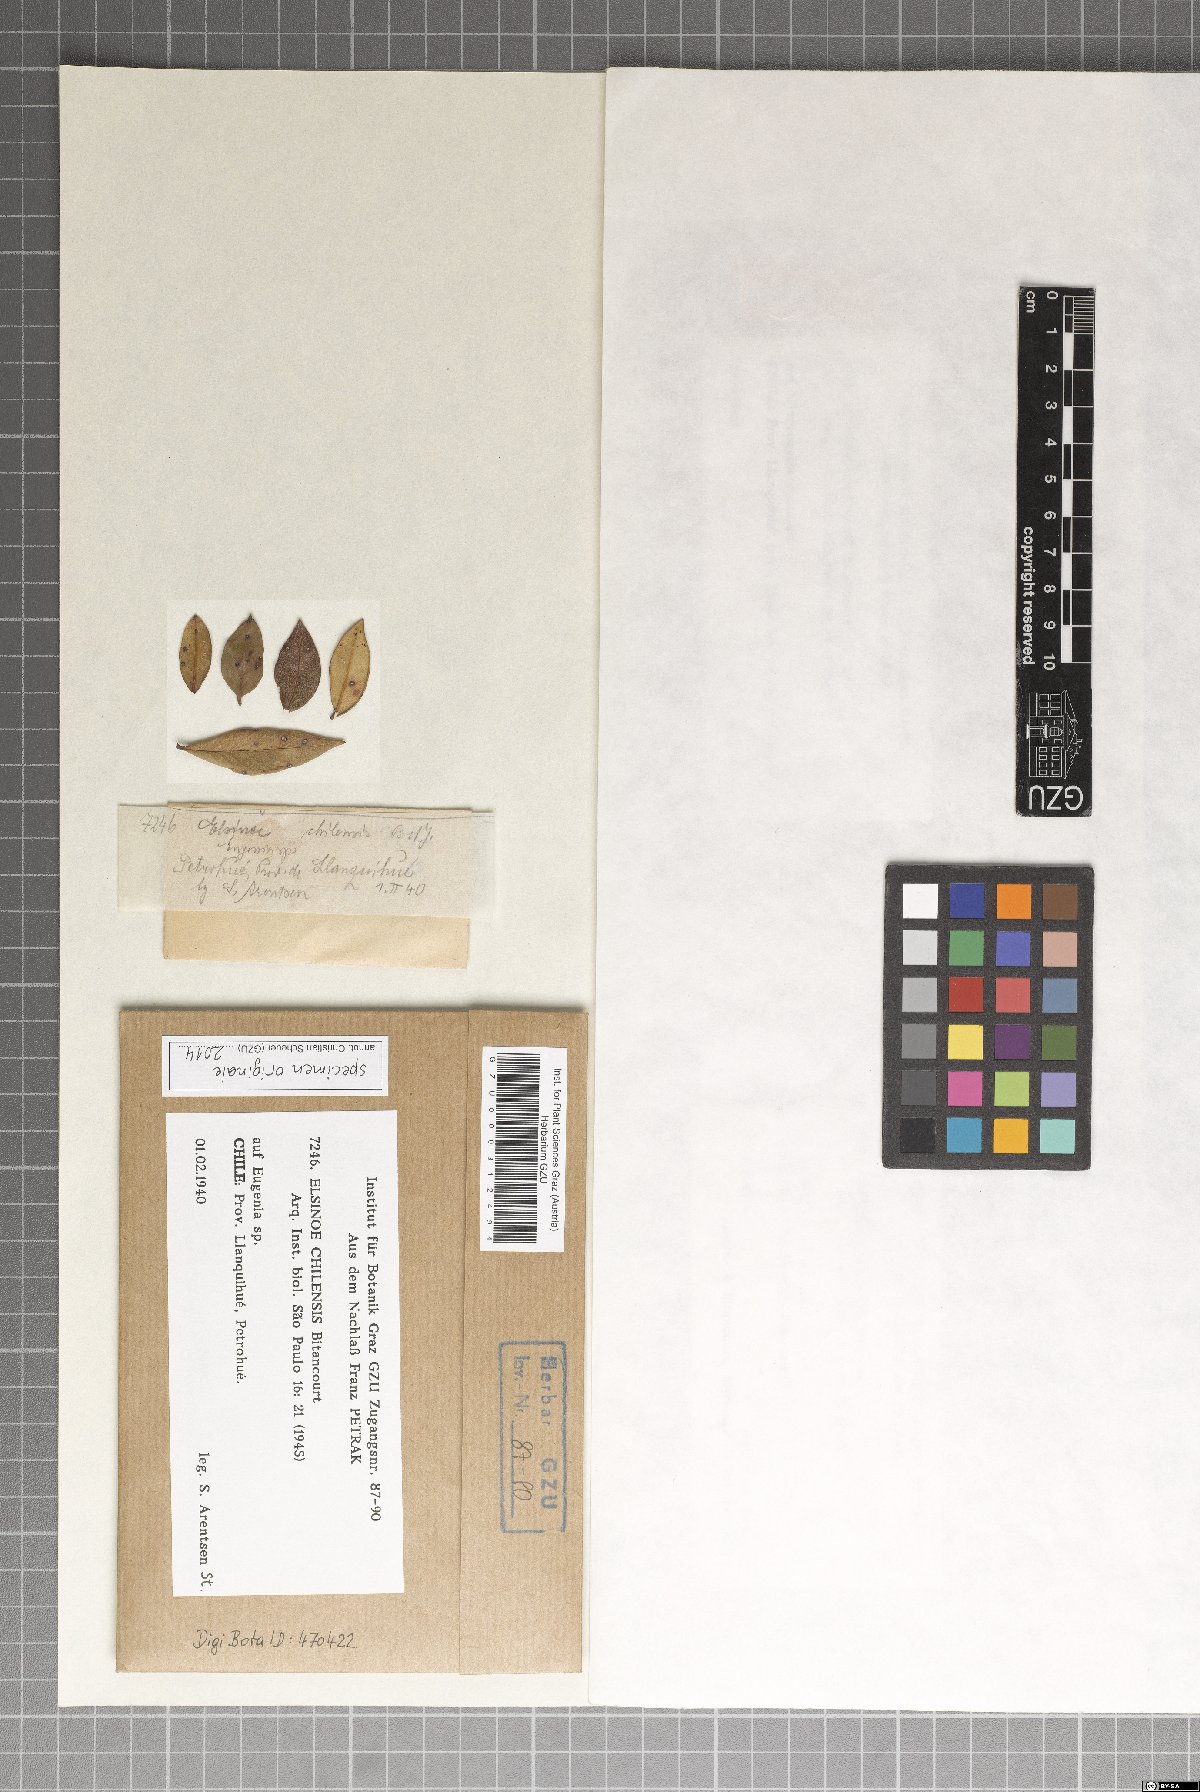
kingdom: Fungi
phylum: Ascomycota
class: Dothideomycetes
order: Myriangiales
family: Elsinoaceae
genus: Elsinoe
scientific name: Elsinoe chilensis
